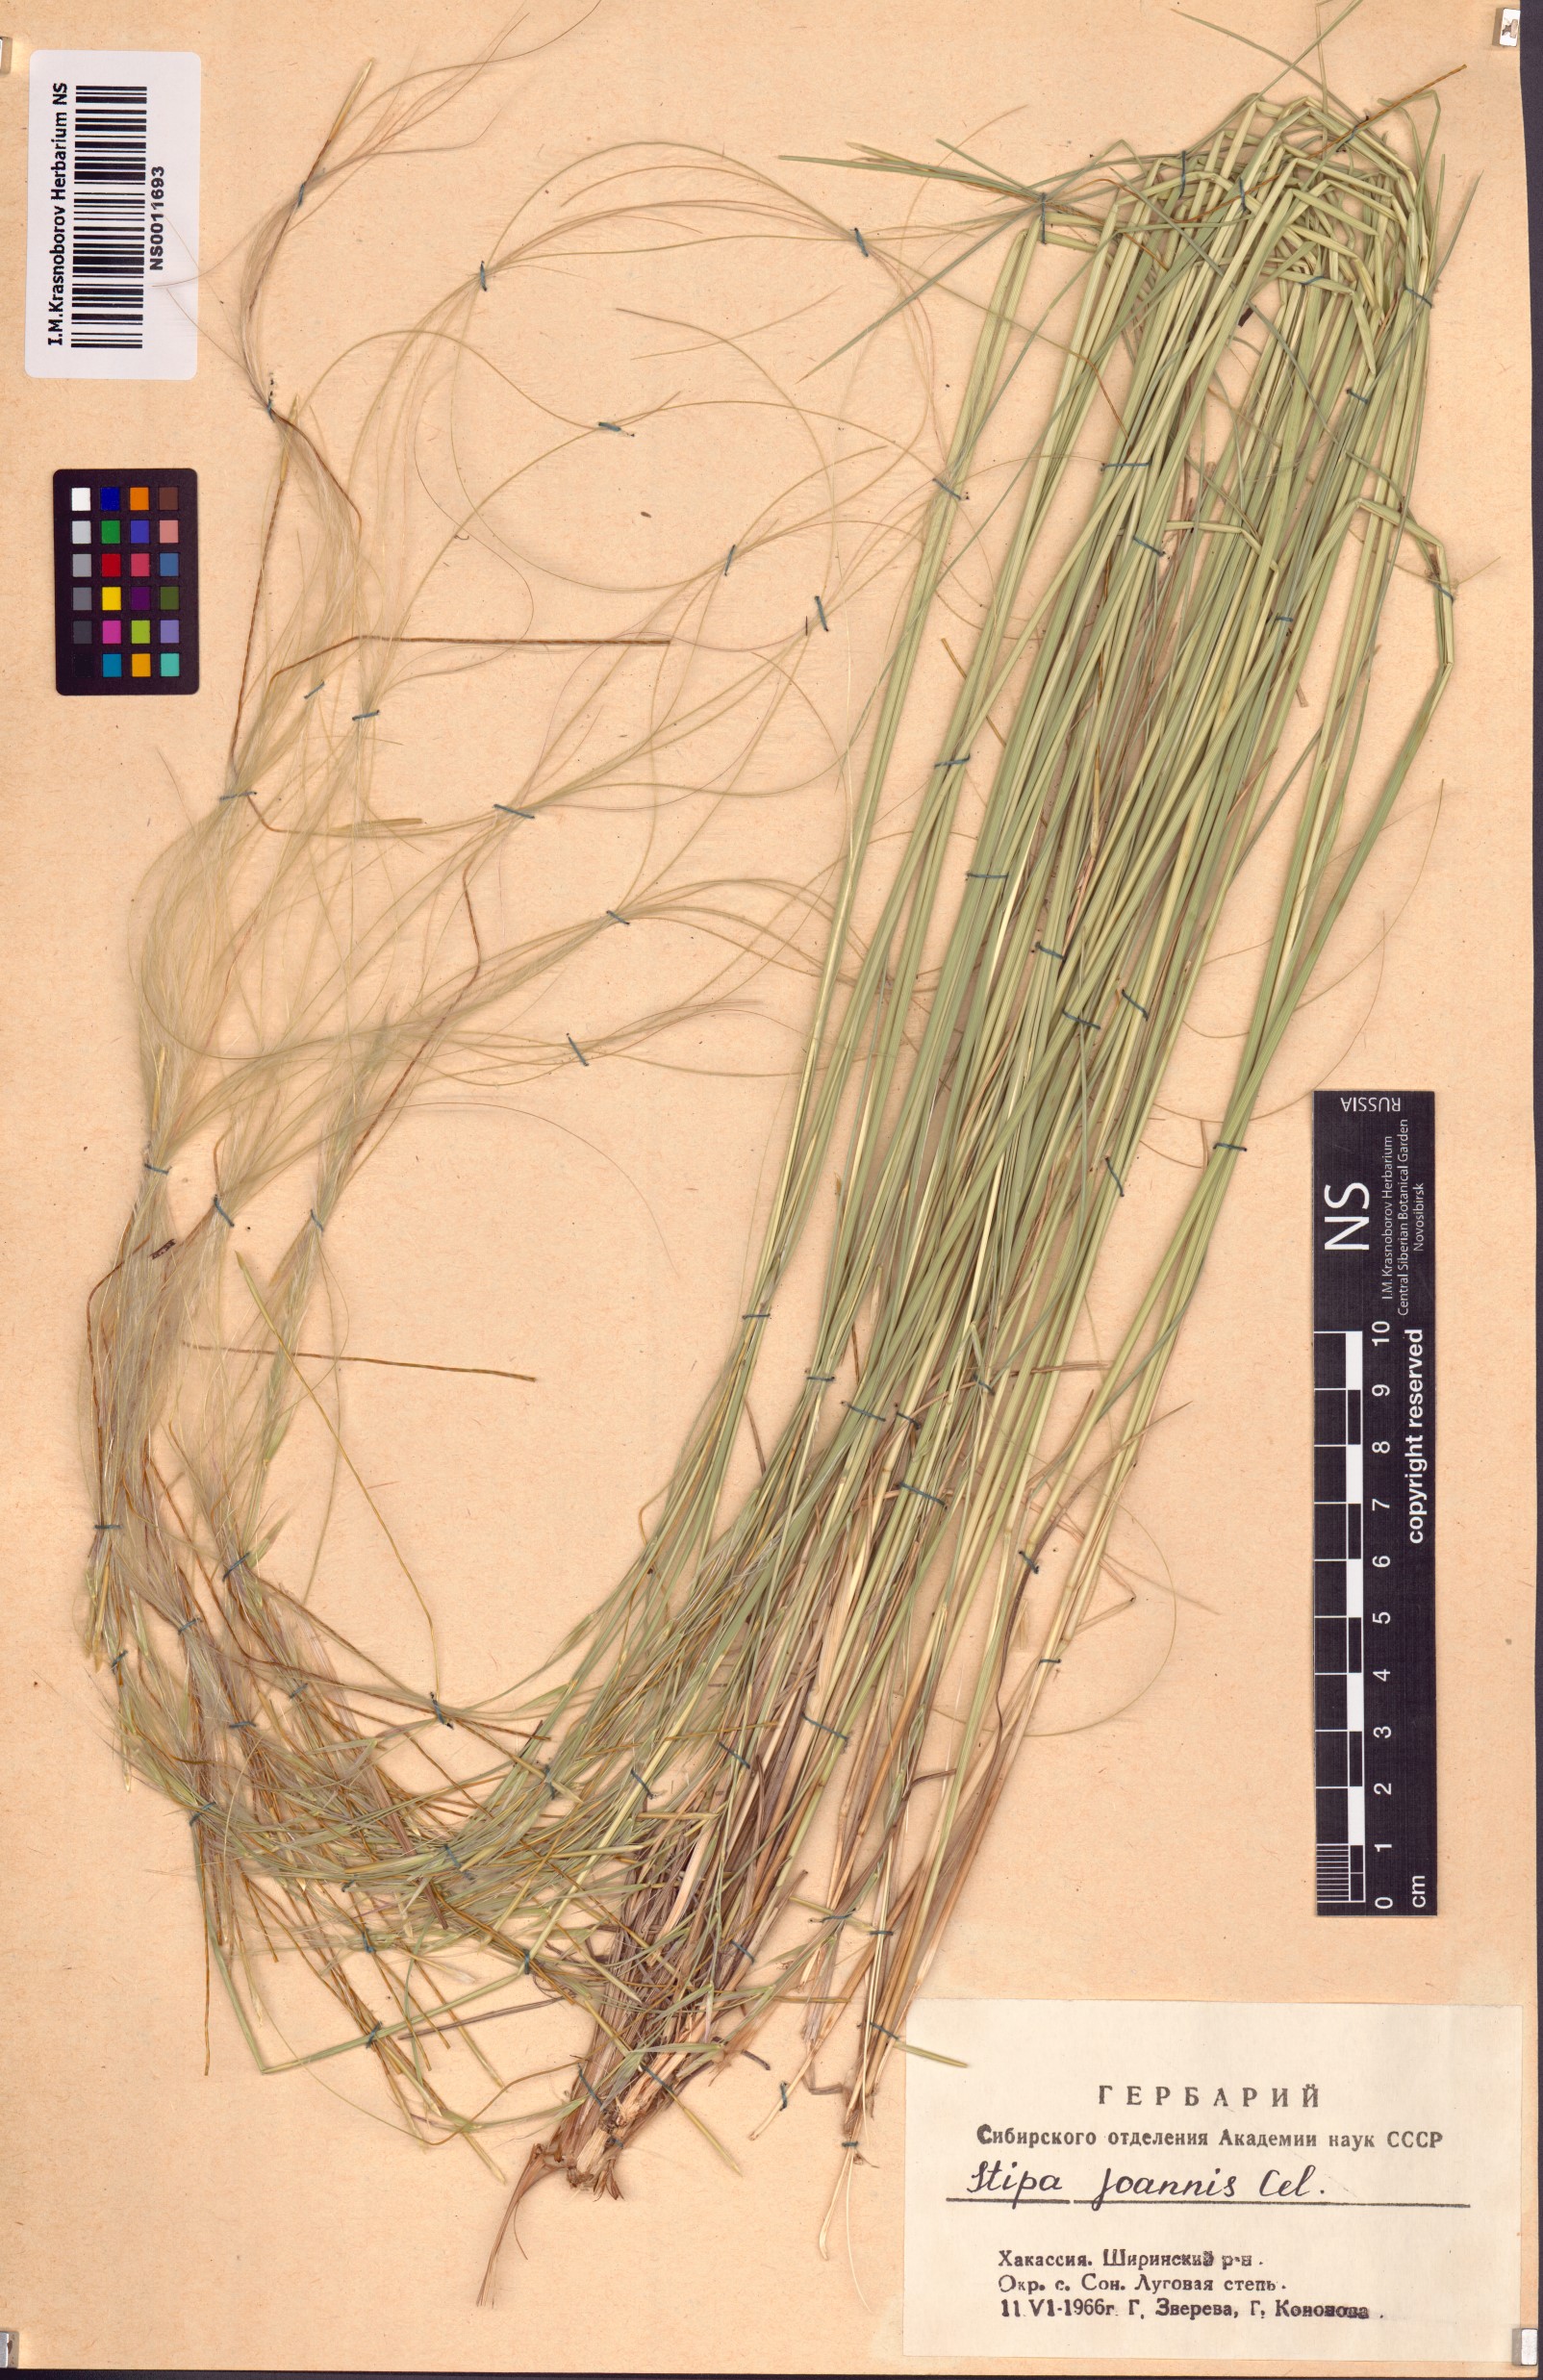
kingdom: Plantae
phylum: Tracheophyta
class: Liliopsida
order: Poales
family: Poaceae
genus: Stipa
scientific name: Stipa pennata
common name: European feather grass
